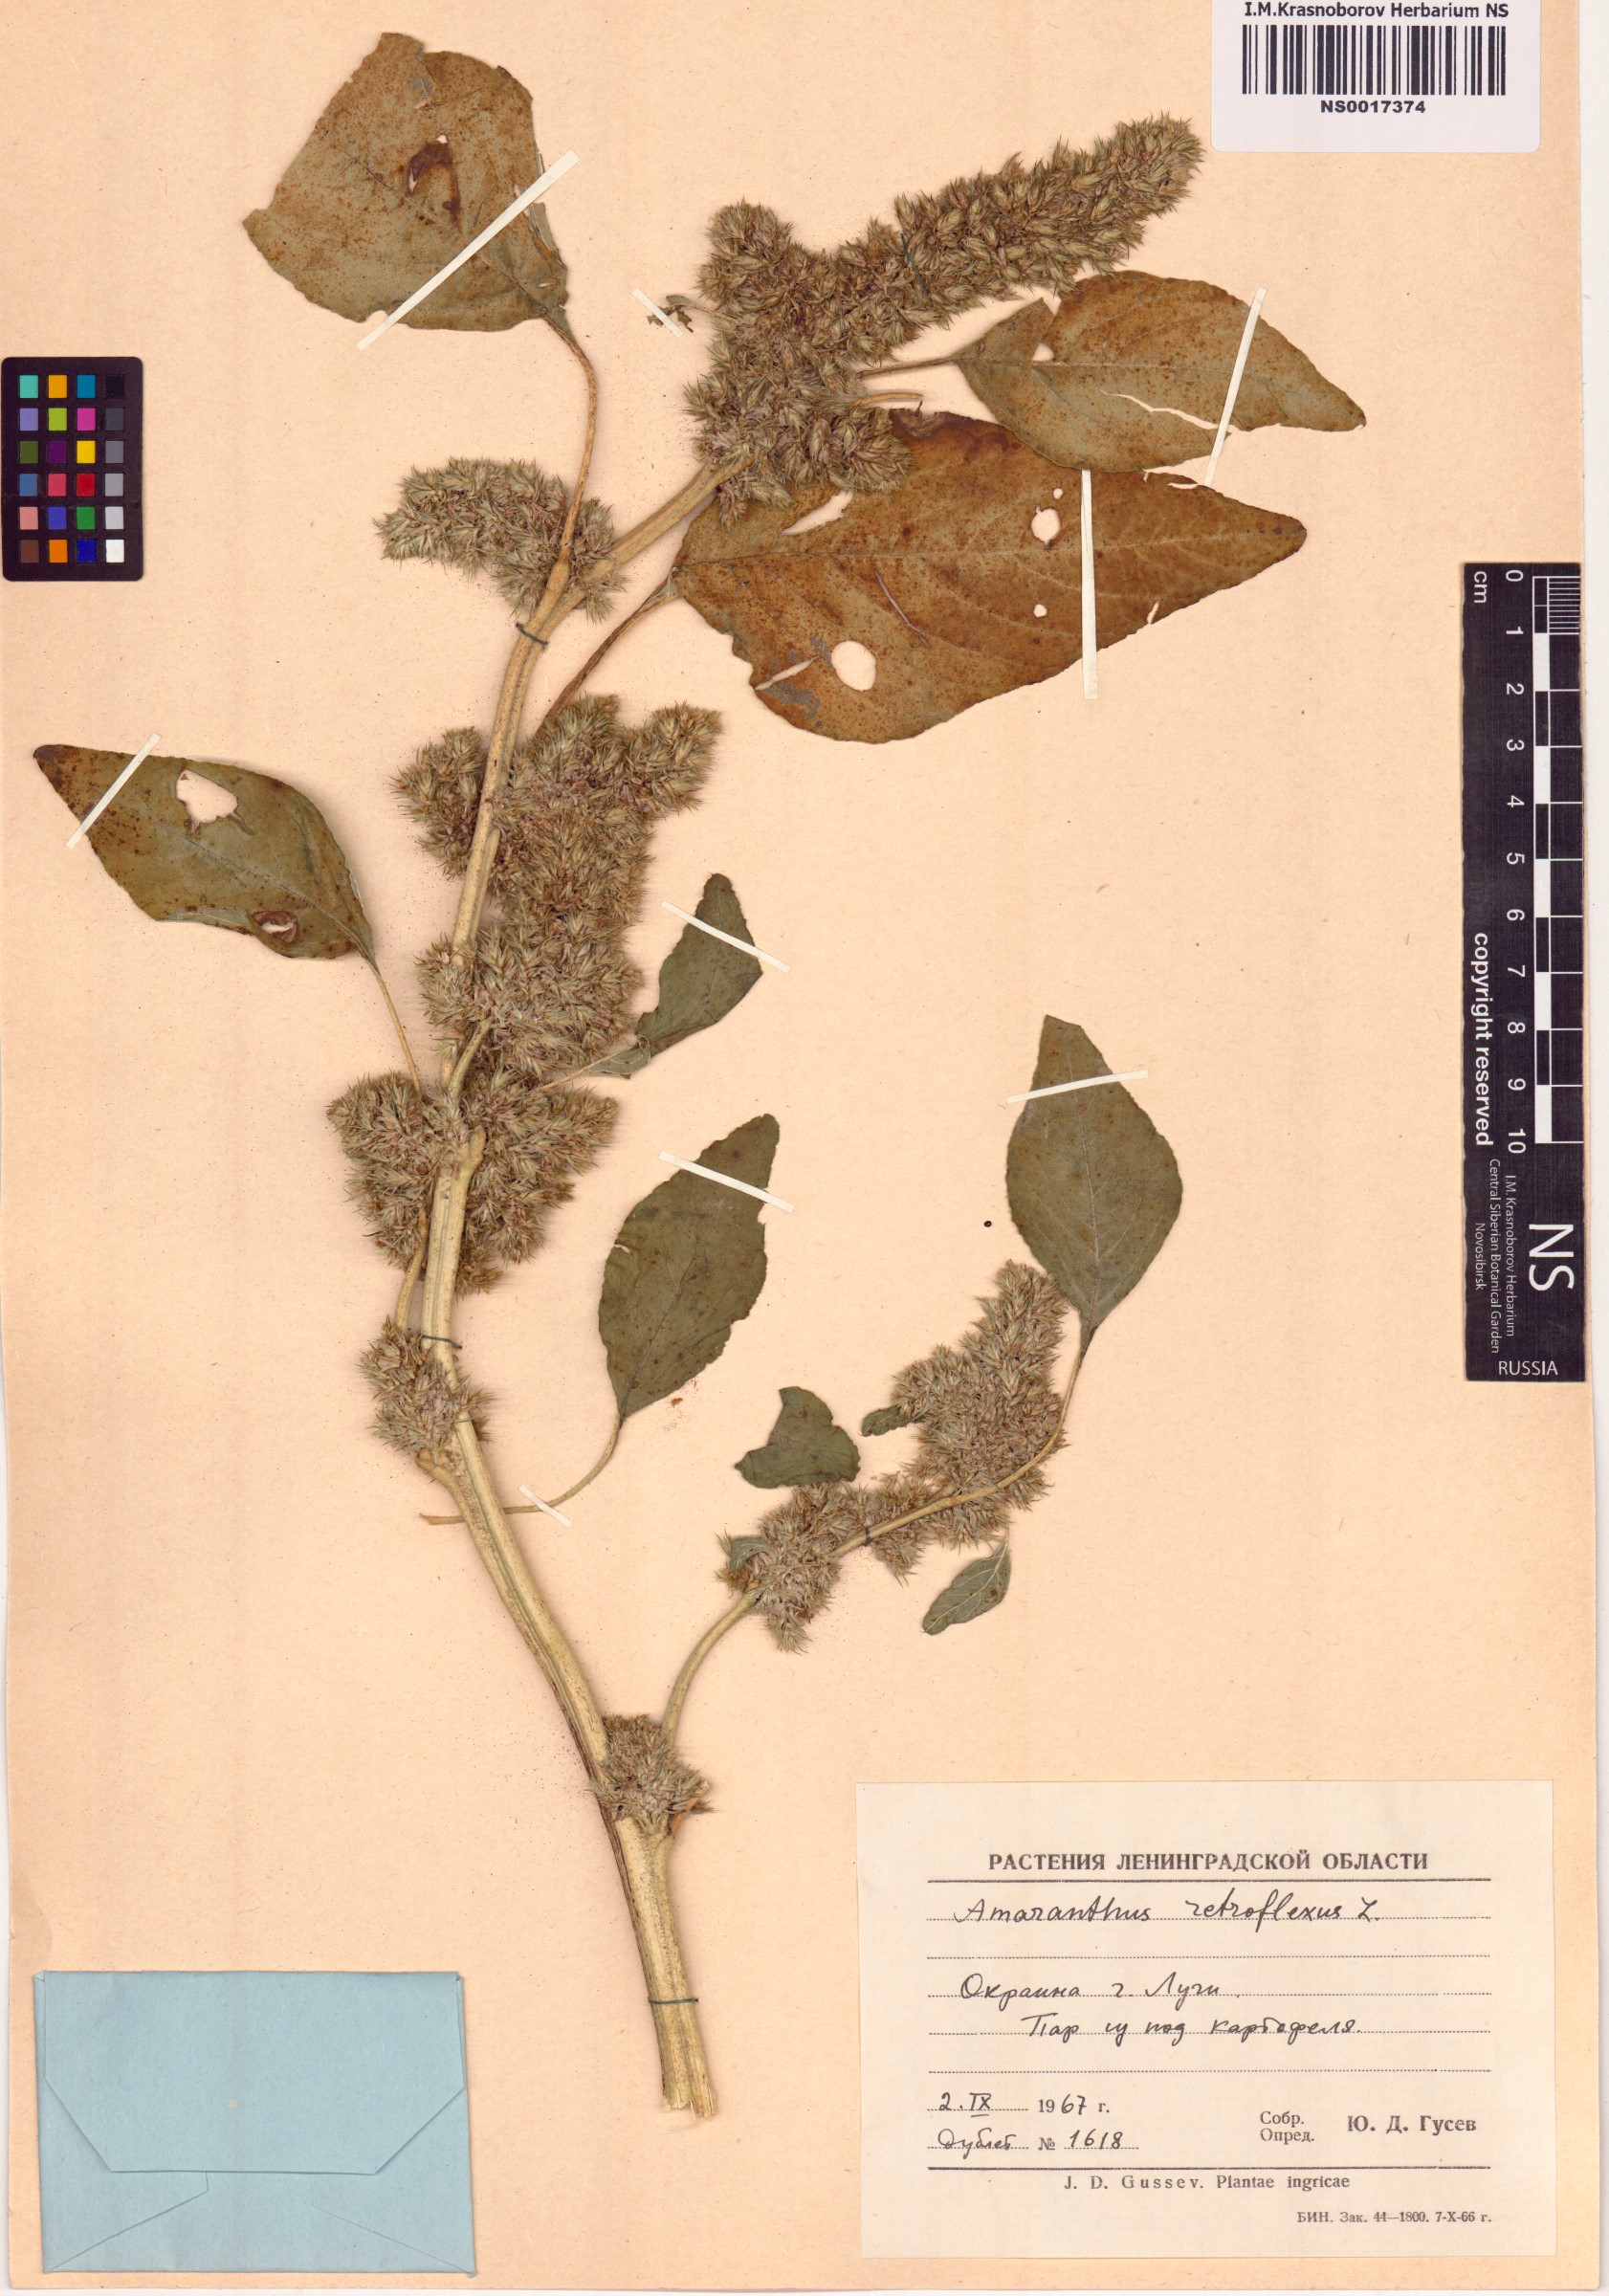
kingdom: Plantae
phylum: Tracheophyta
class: Magnoliopsida
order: Caryophyllales
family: Amaranthaceae
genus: Amaranthus
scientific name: Amaranthus retroflexus
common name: Redroot amaranth
